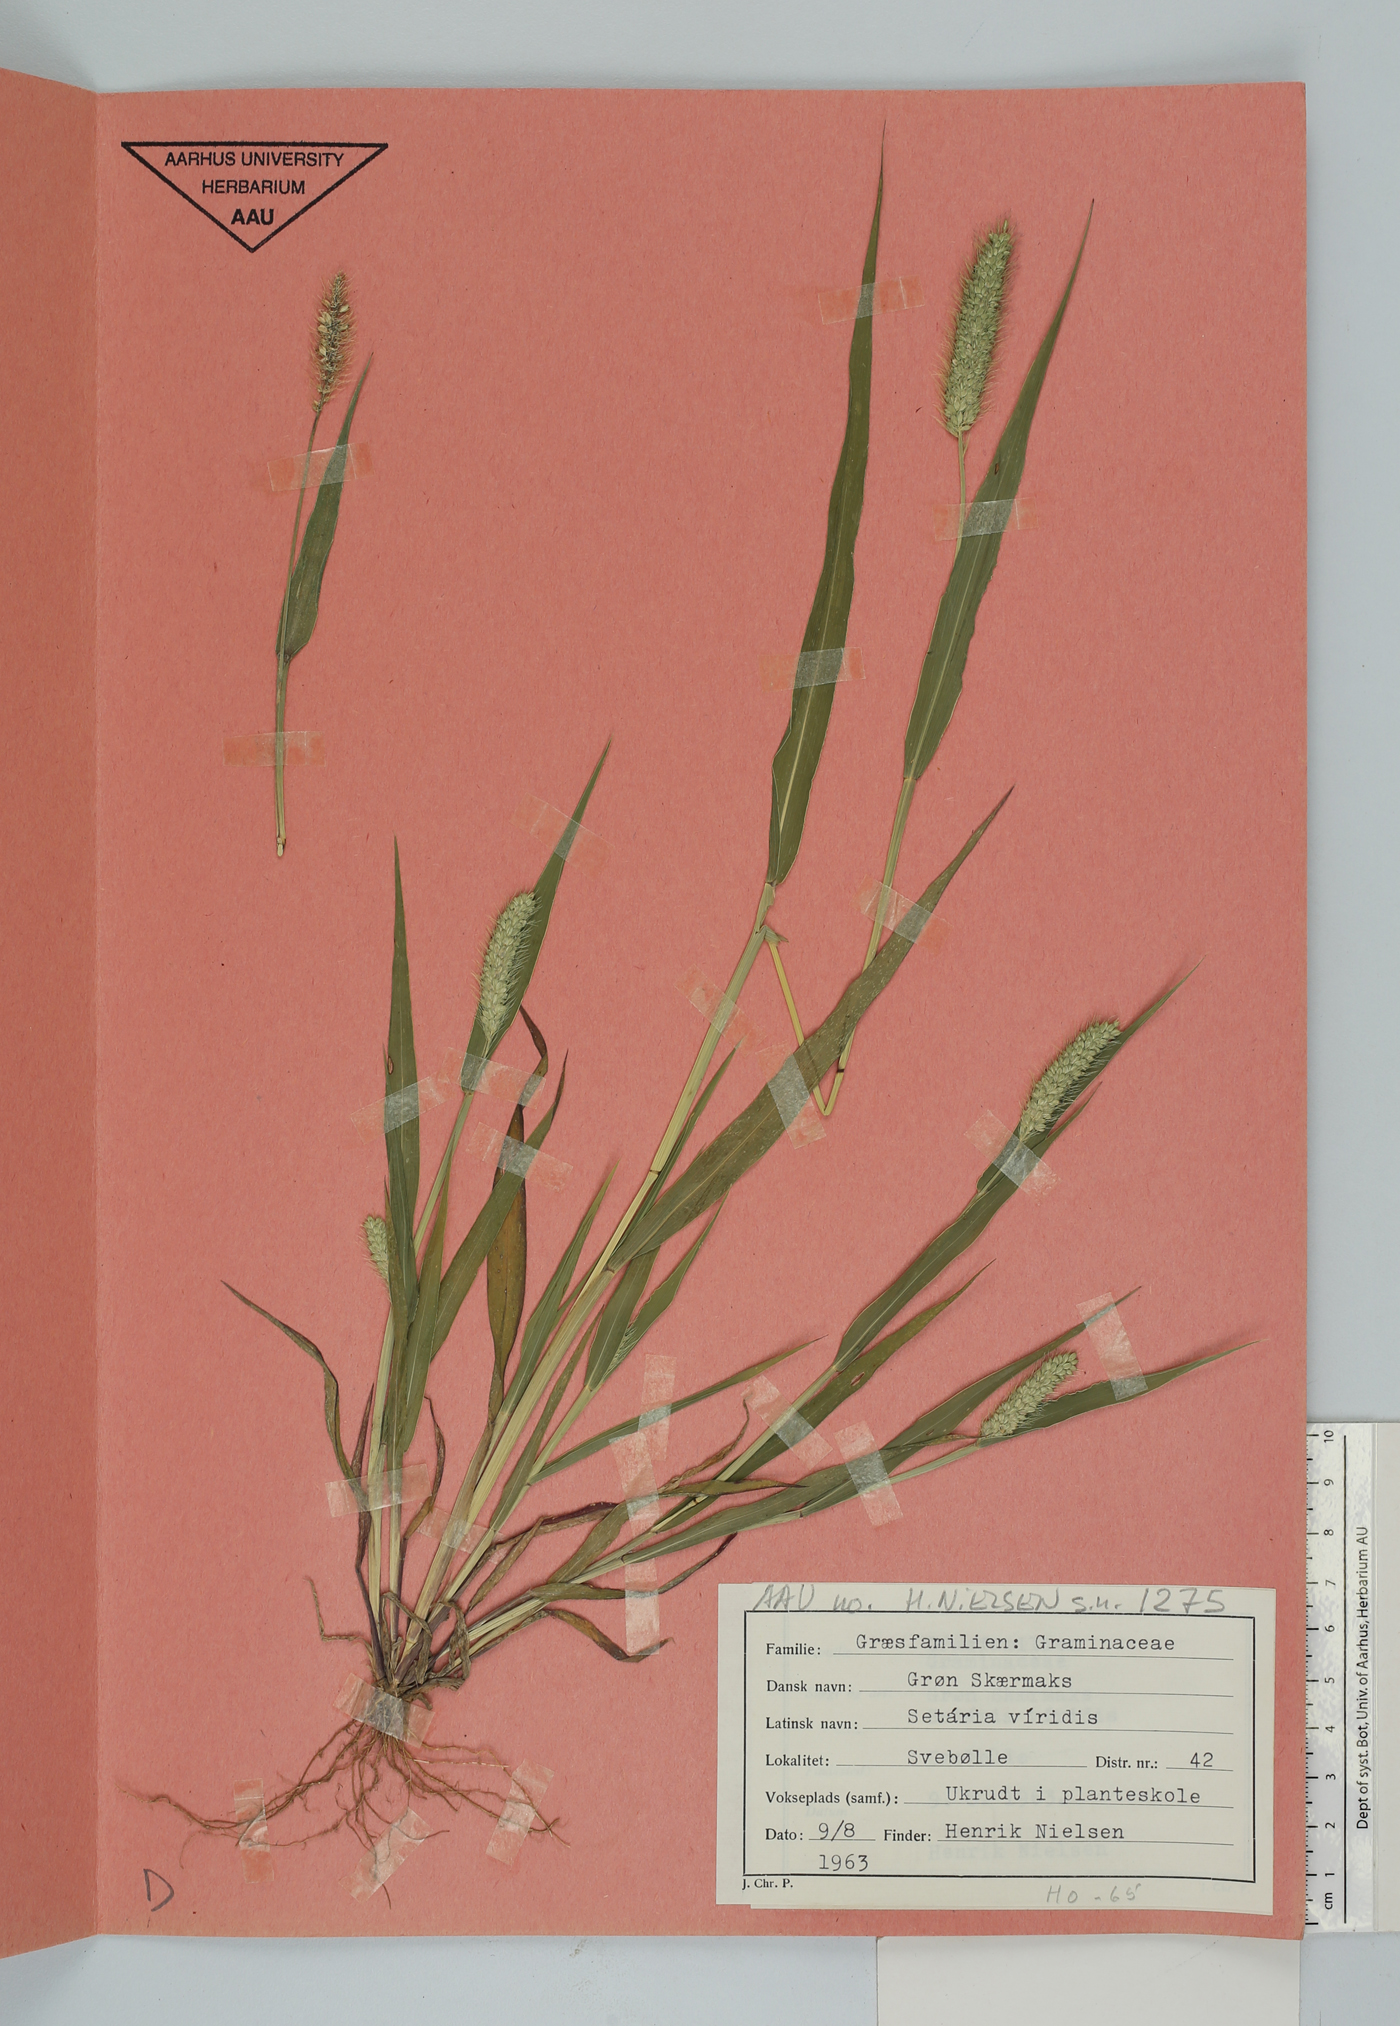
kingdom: Plantae
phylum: Tracheophyta
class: Liliopsida
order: Poales
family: Poaceae
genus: Setaria
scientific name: Setaria viridis
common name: Green bristlegrass
